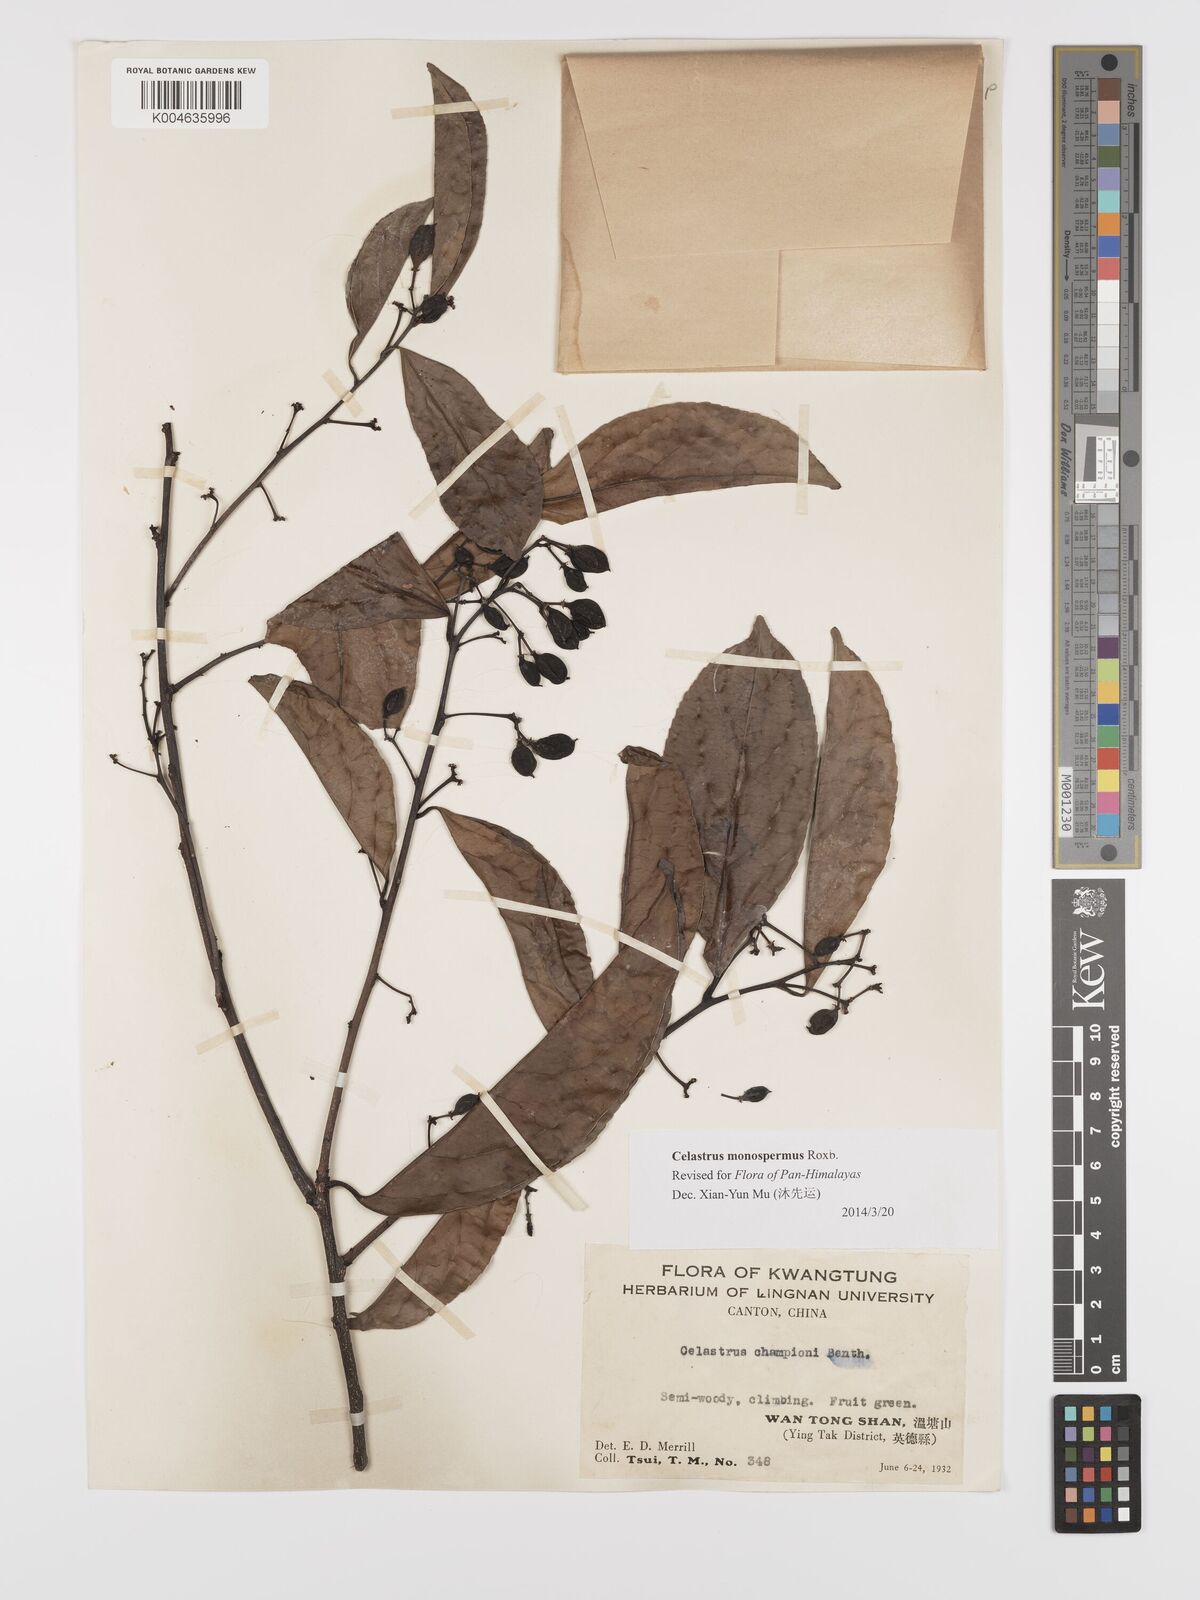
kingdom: Plantae
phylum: Tracheophyta
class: Magnoliopsida
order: Celastrales
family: Celastraceae
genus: Celastrus
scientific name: Celastrus monospermus
